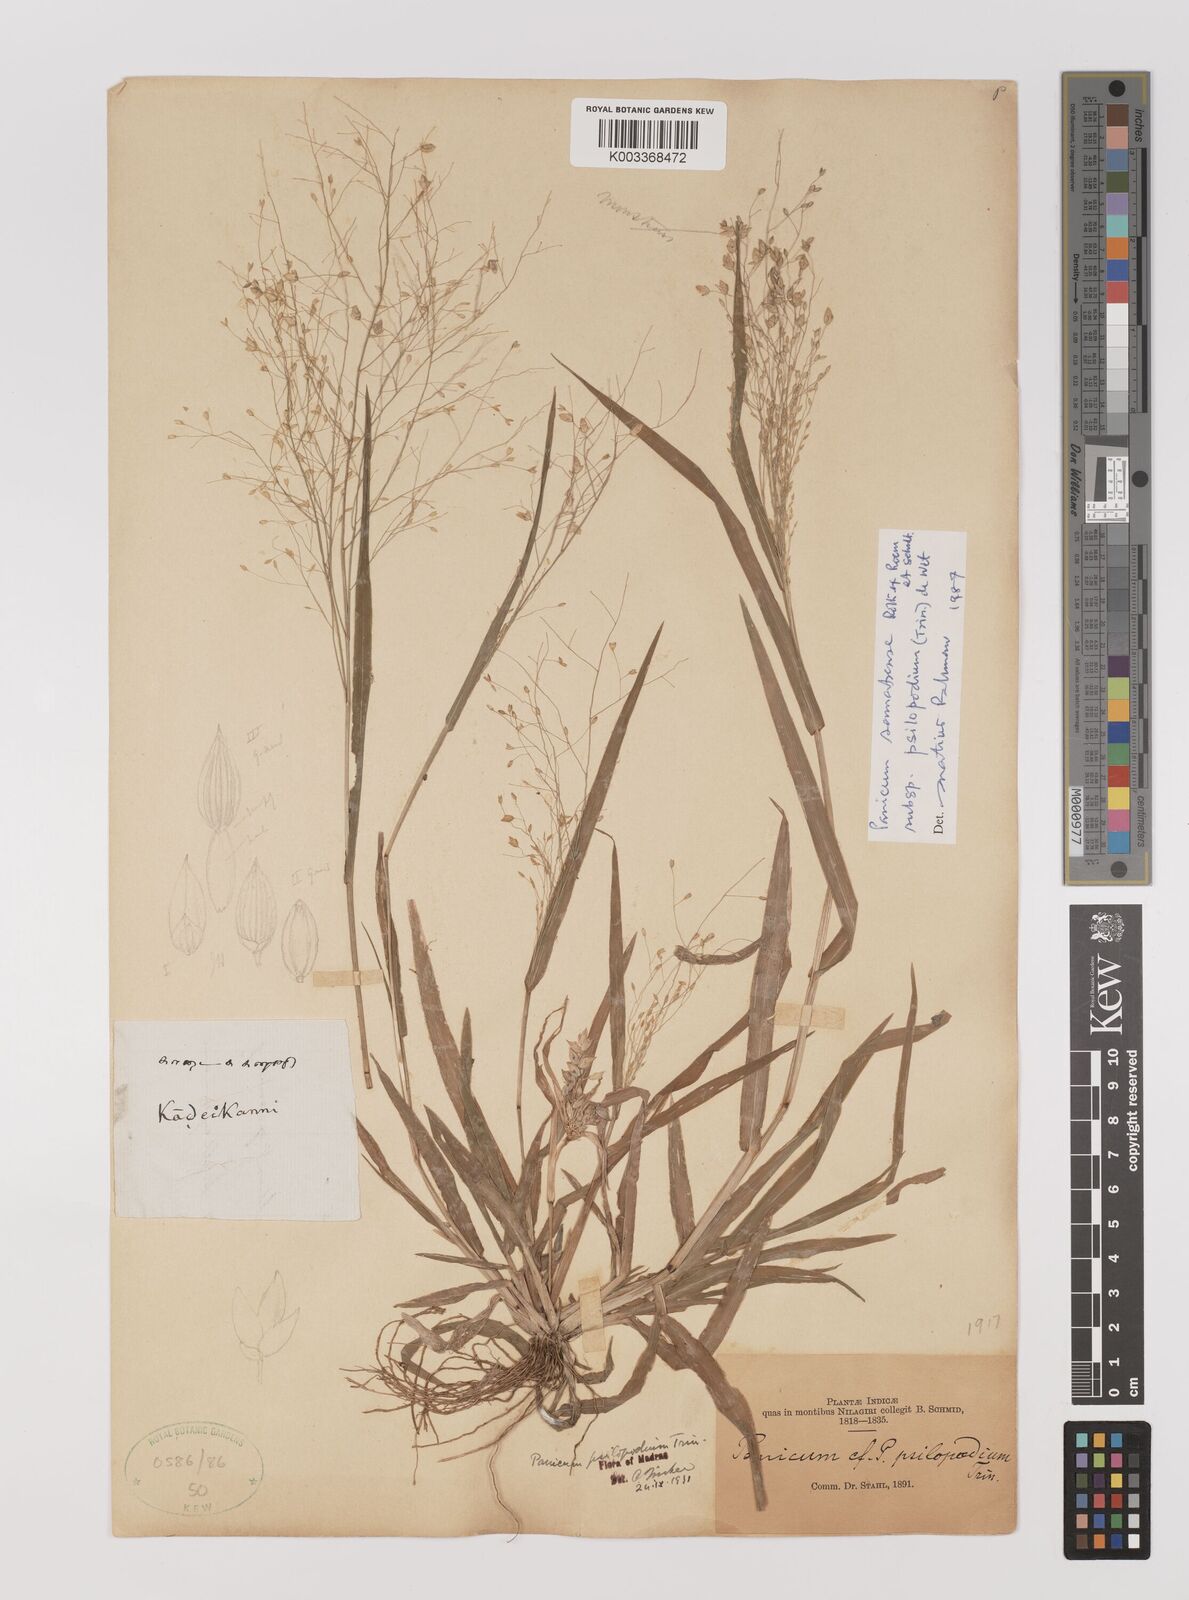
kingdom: Plantae
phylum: Tracheophyta
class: Liliopsida
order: Poales
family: Poaceae
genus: Panicum
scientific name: Panicum sumatrense
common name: Little millet
